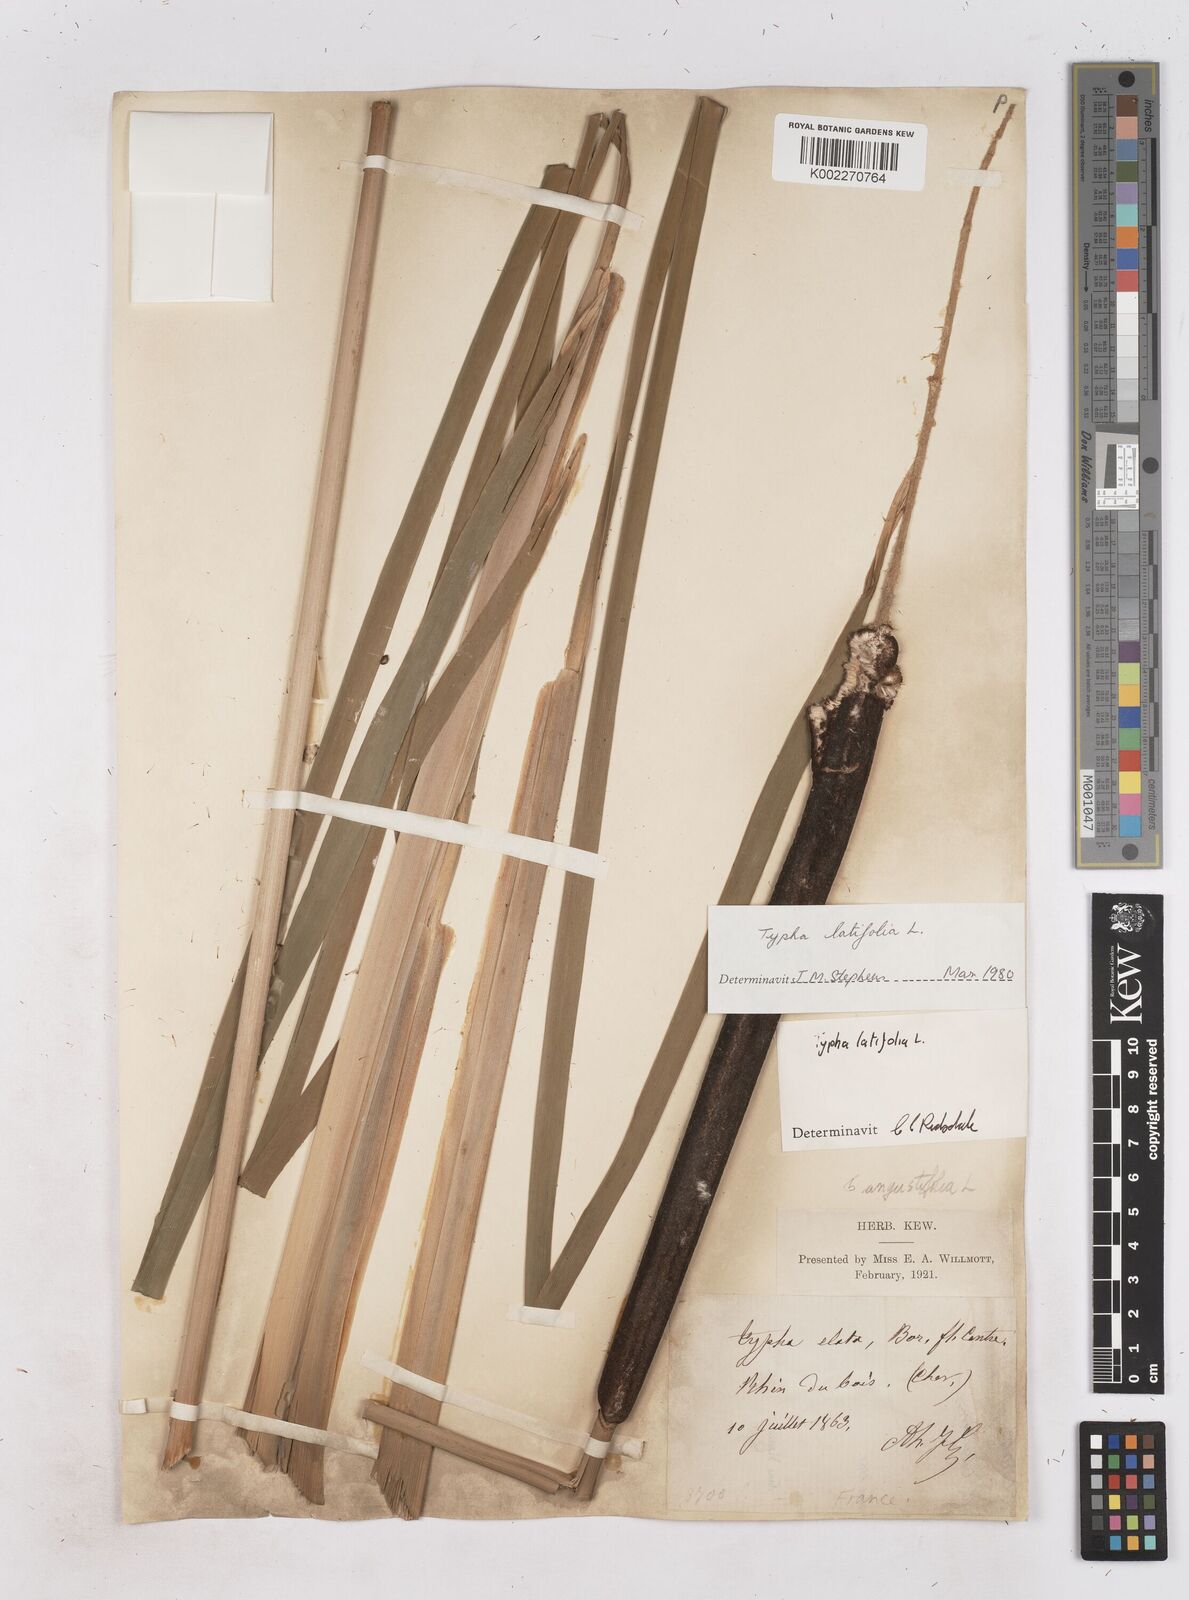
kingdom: Plantae
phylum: Tracheophyta
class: Liliopsida
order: Poales
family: Typhaceae
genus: Typha
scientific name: Typha latifolia
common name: Broadleaf cattail
